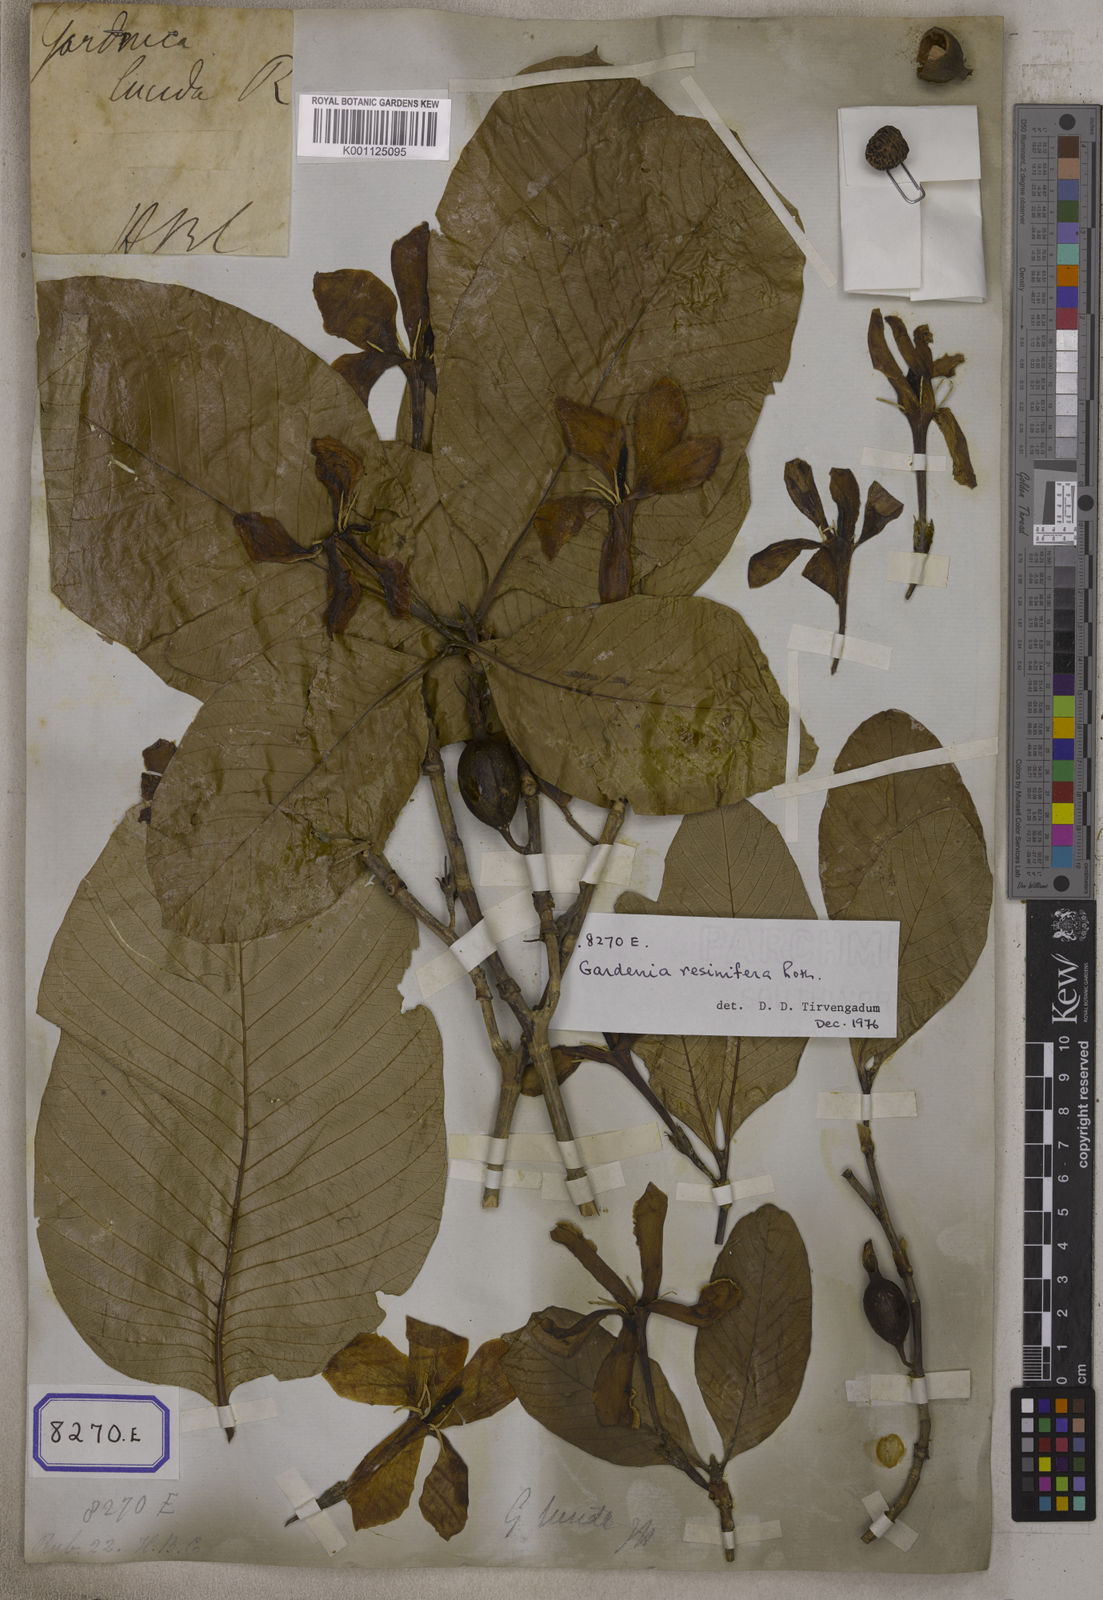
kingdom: Plantae
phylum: Tracheophyta
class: Magnoliopsida
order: Gentianales
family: Rubiaceae
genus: Gardenia
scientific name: Gardenia resinifera
